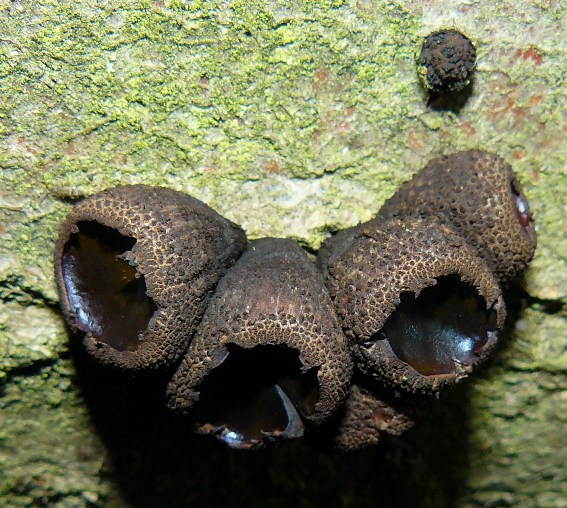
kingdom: Fungi
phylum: Ascomycota
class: Leotiomycetes
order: Phacidiales
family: Phacidiaceae
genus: Bulgaria
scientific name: Bulgaria inquinans
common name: afsmittende topsvamp
